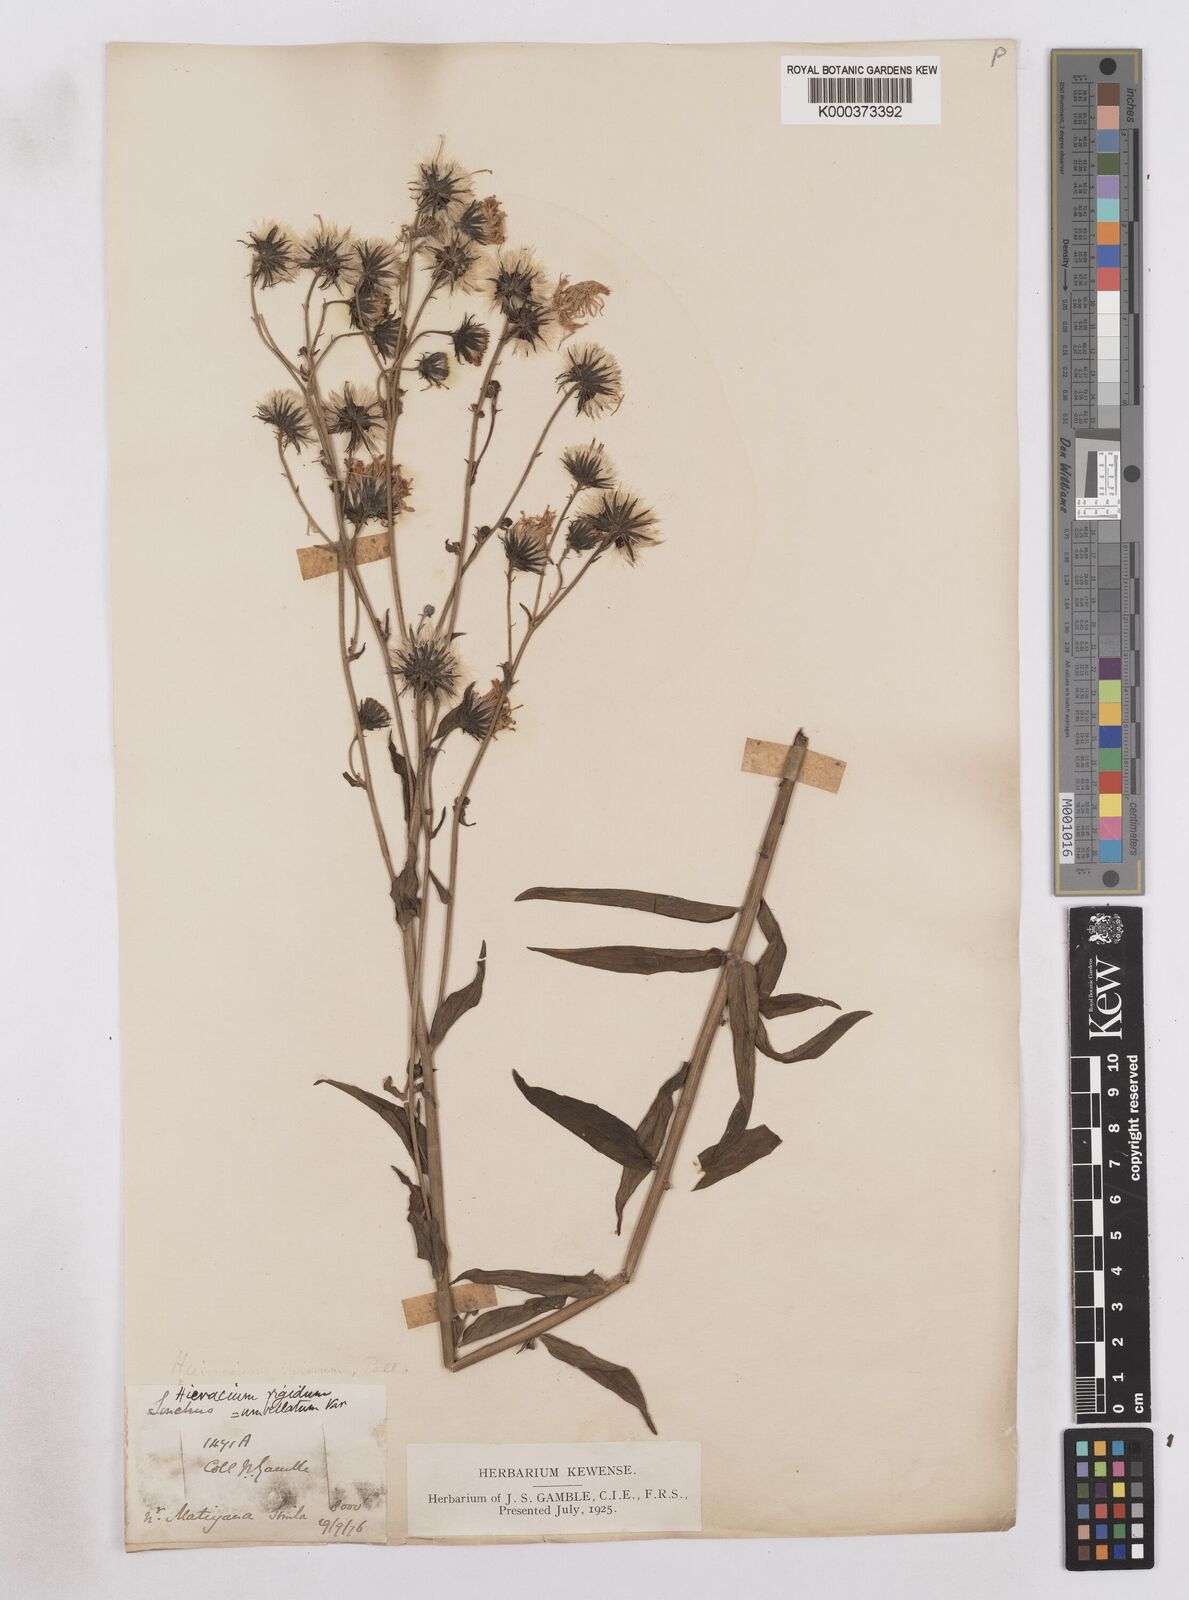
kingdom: Plantae
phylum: Tracheophyta
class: Magnoliopsida
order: Asterales
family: Asteraceae
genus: Hieracium
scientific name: Hieracium umbellatum
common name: Northern hawkweed
